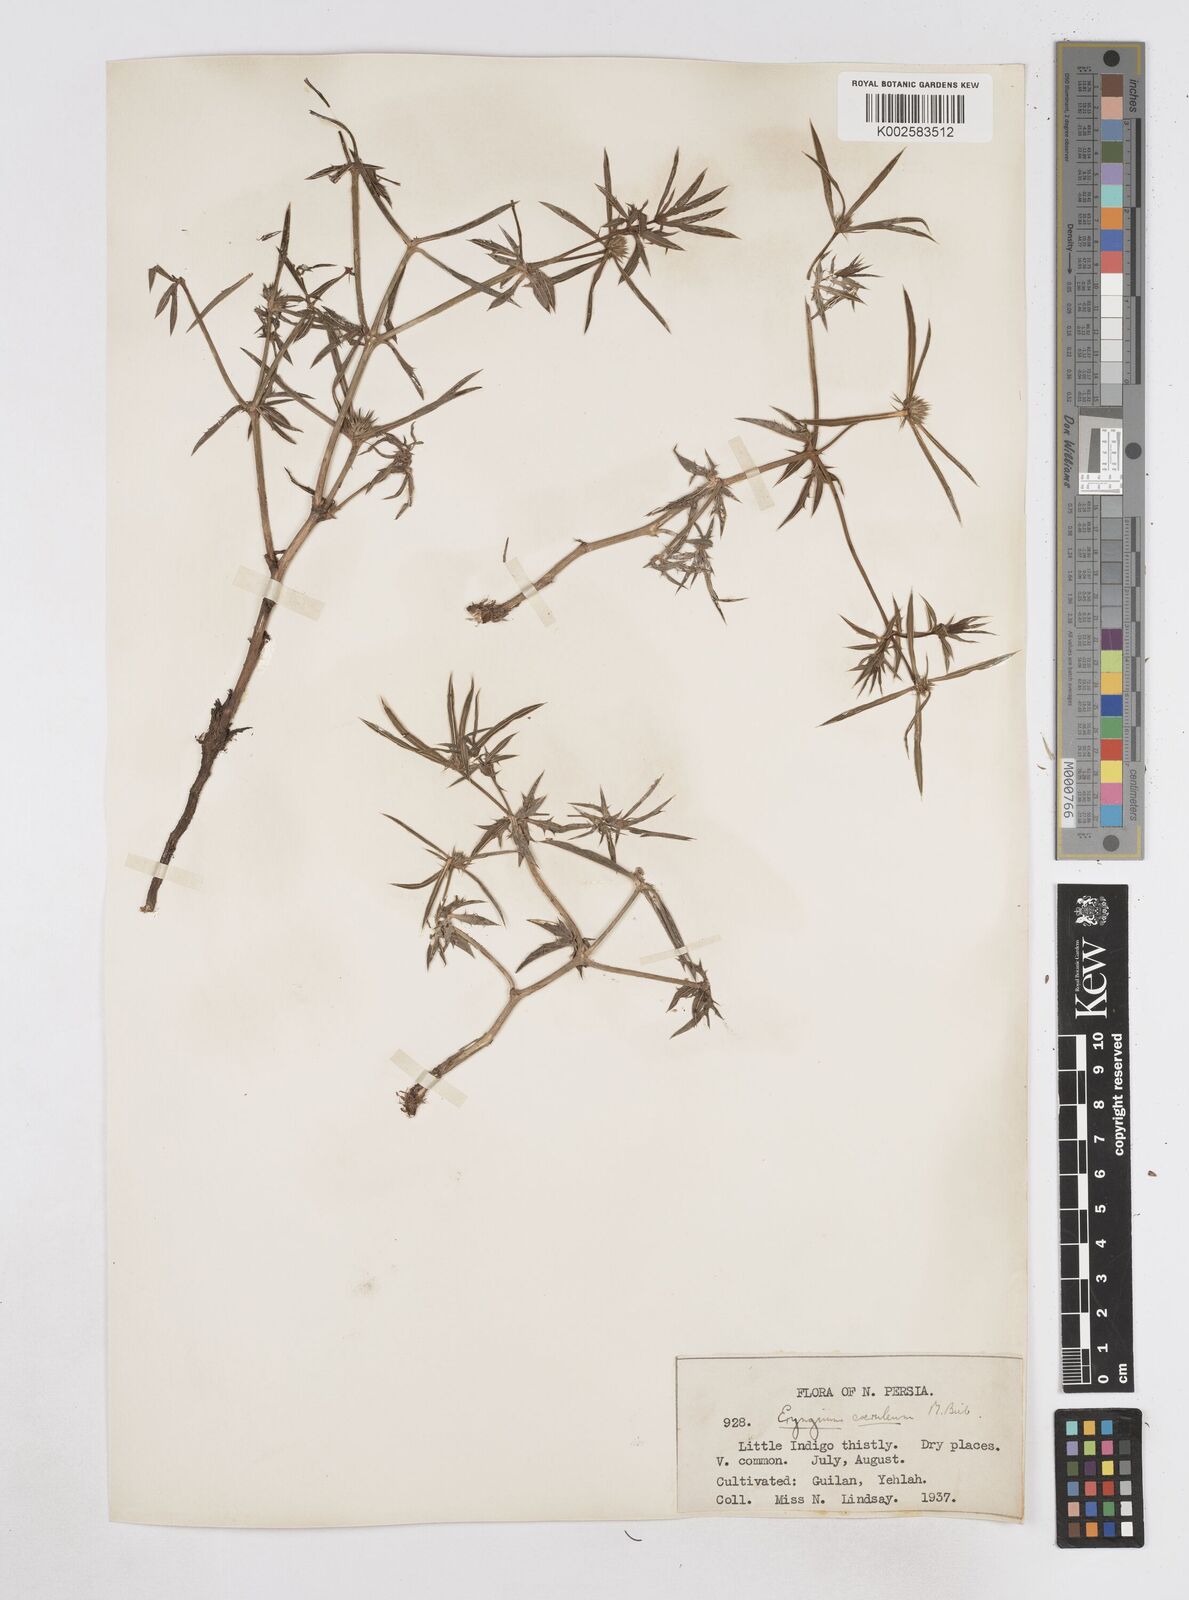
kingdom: Plantae
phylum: Tracheophyta
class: Magnoliopsida
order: Apiales
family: Apiaceae
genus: Eryngium
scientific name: Eryngium caeruleum
